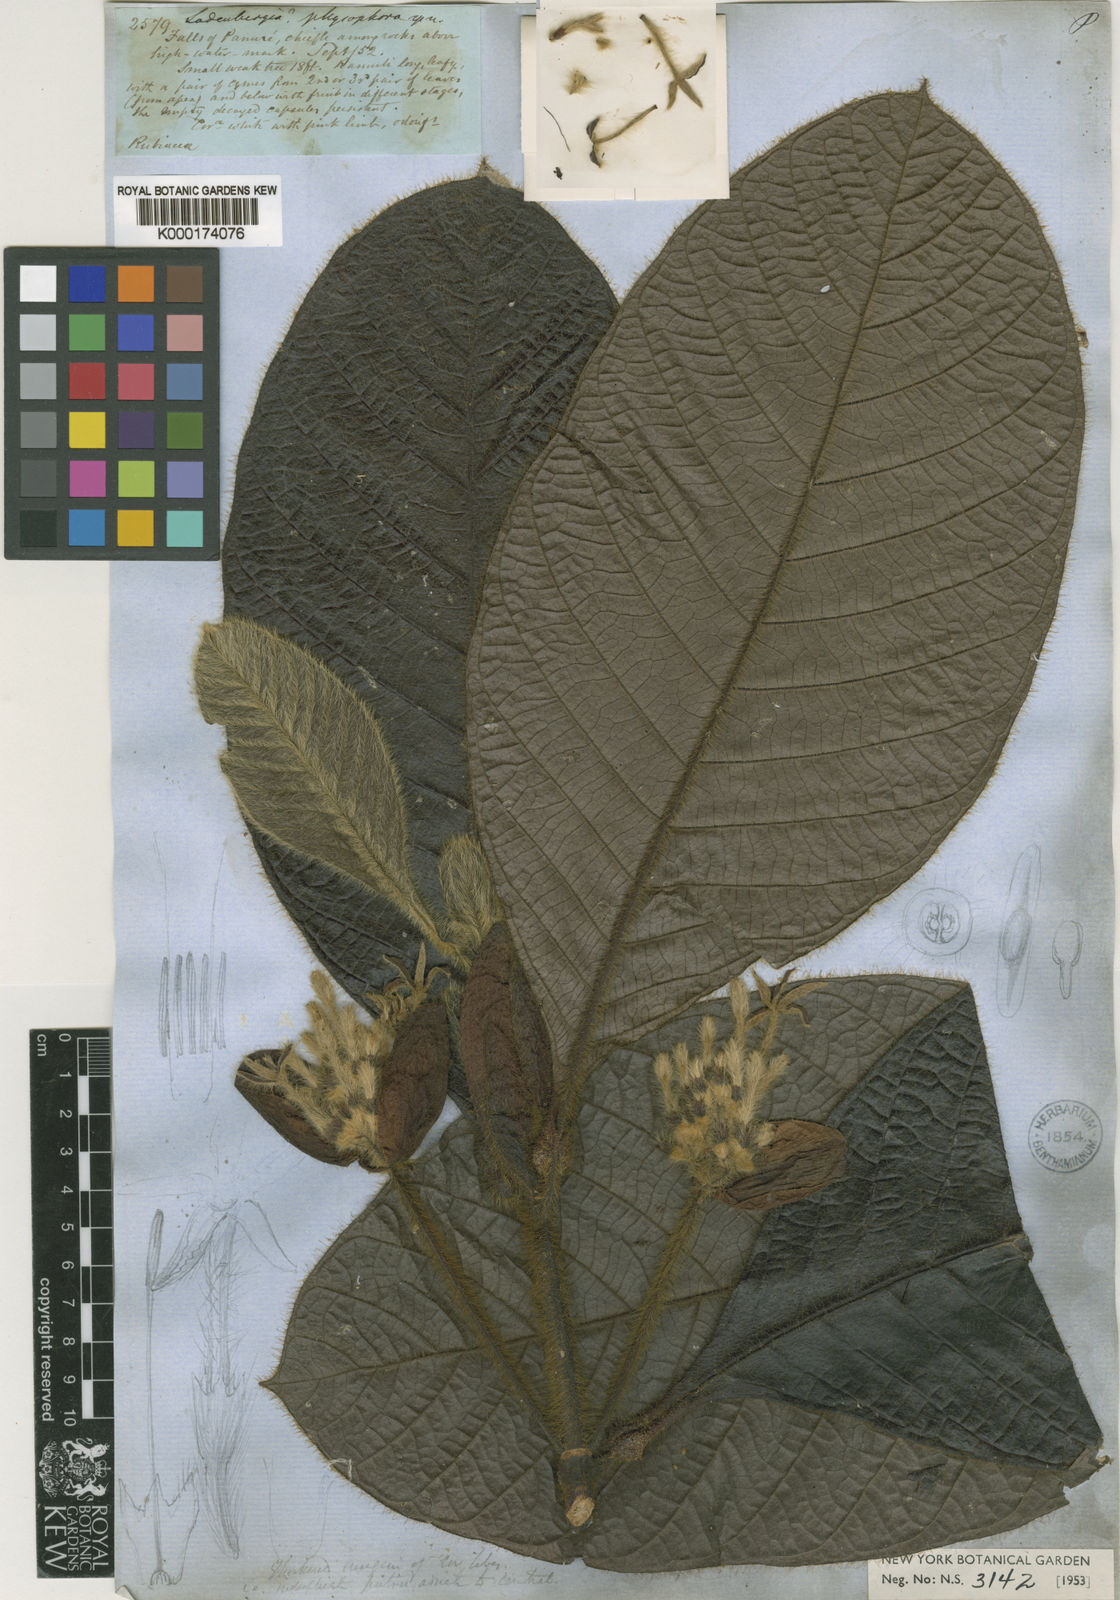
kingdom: Plantae
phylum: Tracheophyta
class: Magnoliopsida
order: Gentianales
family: Rubiaceae
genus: Remijia
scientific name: Remijia physophora
